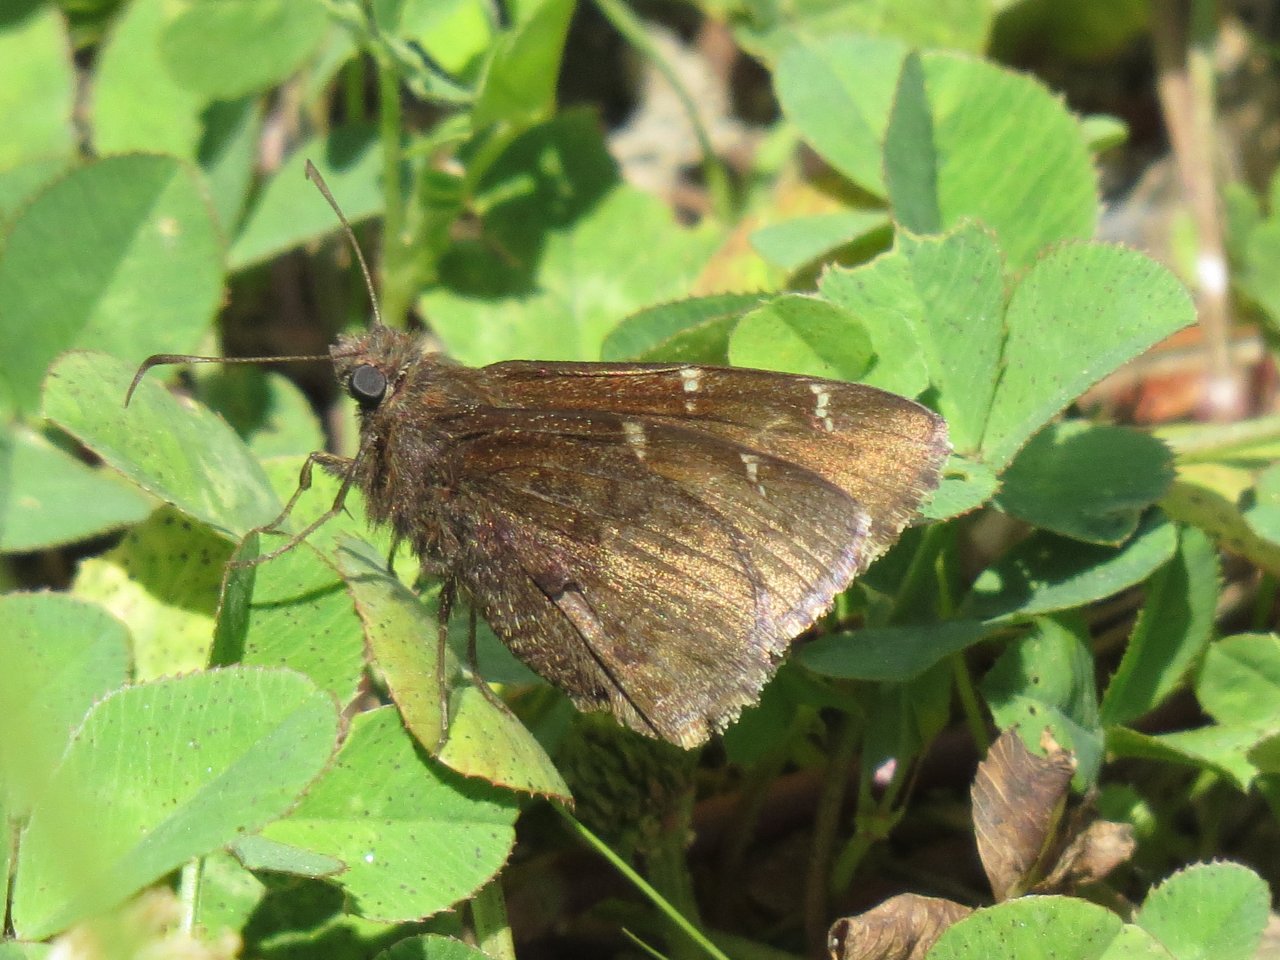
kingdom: Animalia
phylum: Arthropoda
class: Insecta
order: Lepidoptera
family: Hesperiidae
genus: Autochton
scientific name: Autochton
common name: Northern Cloudywing
